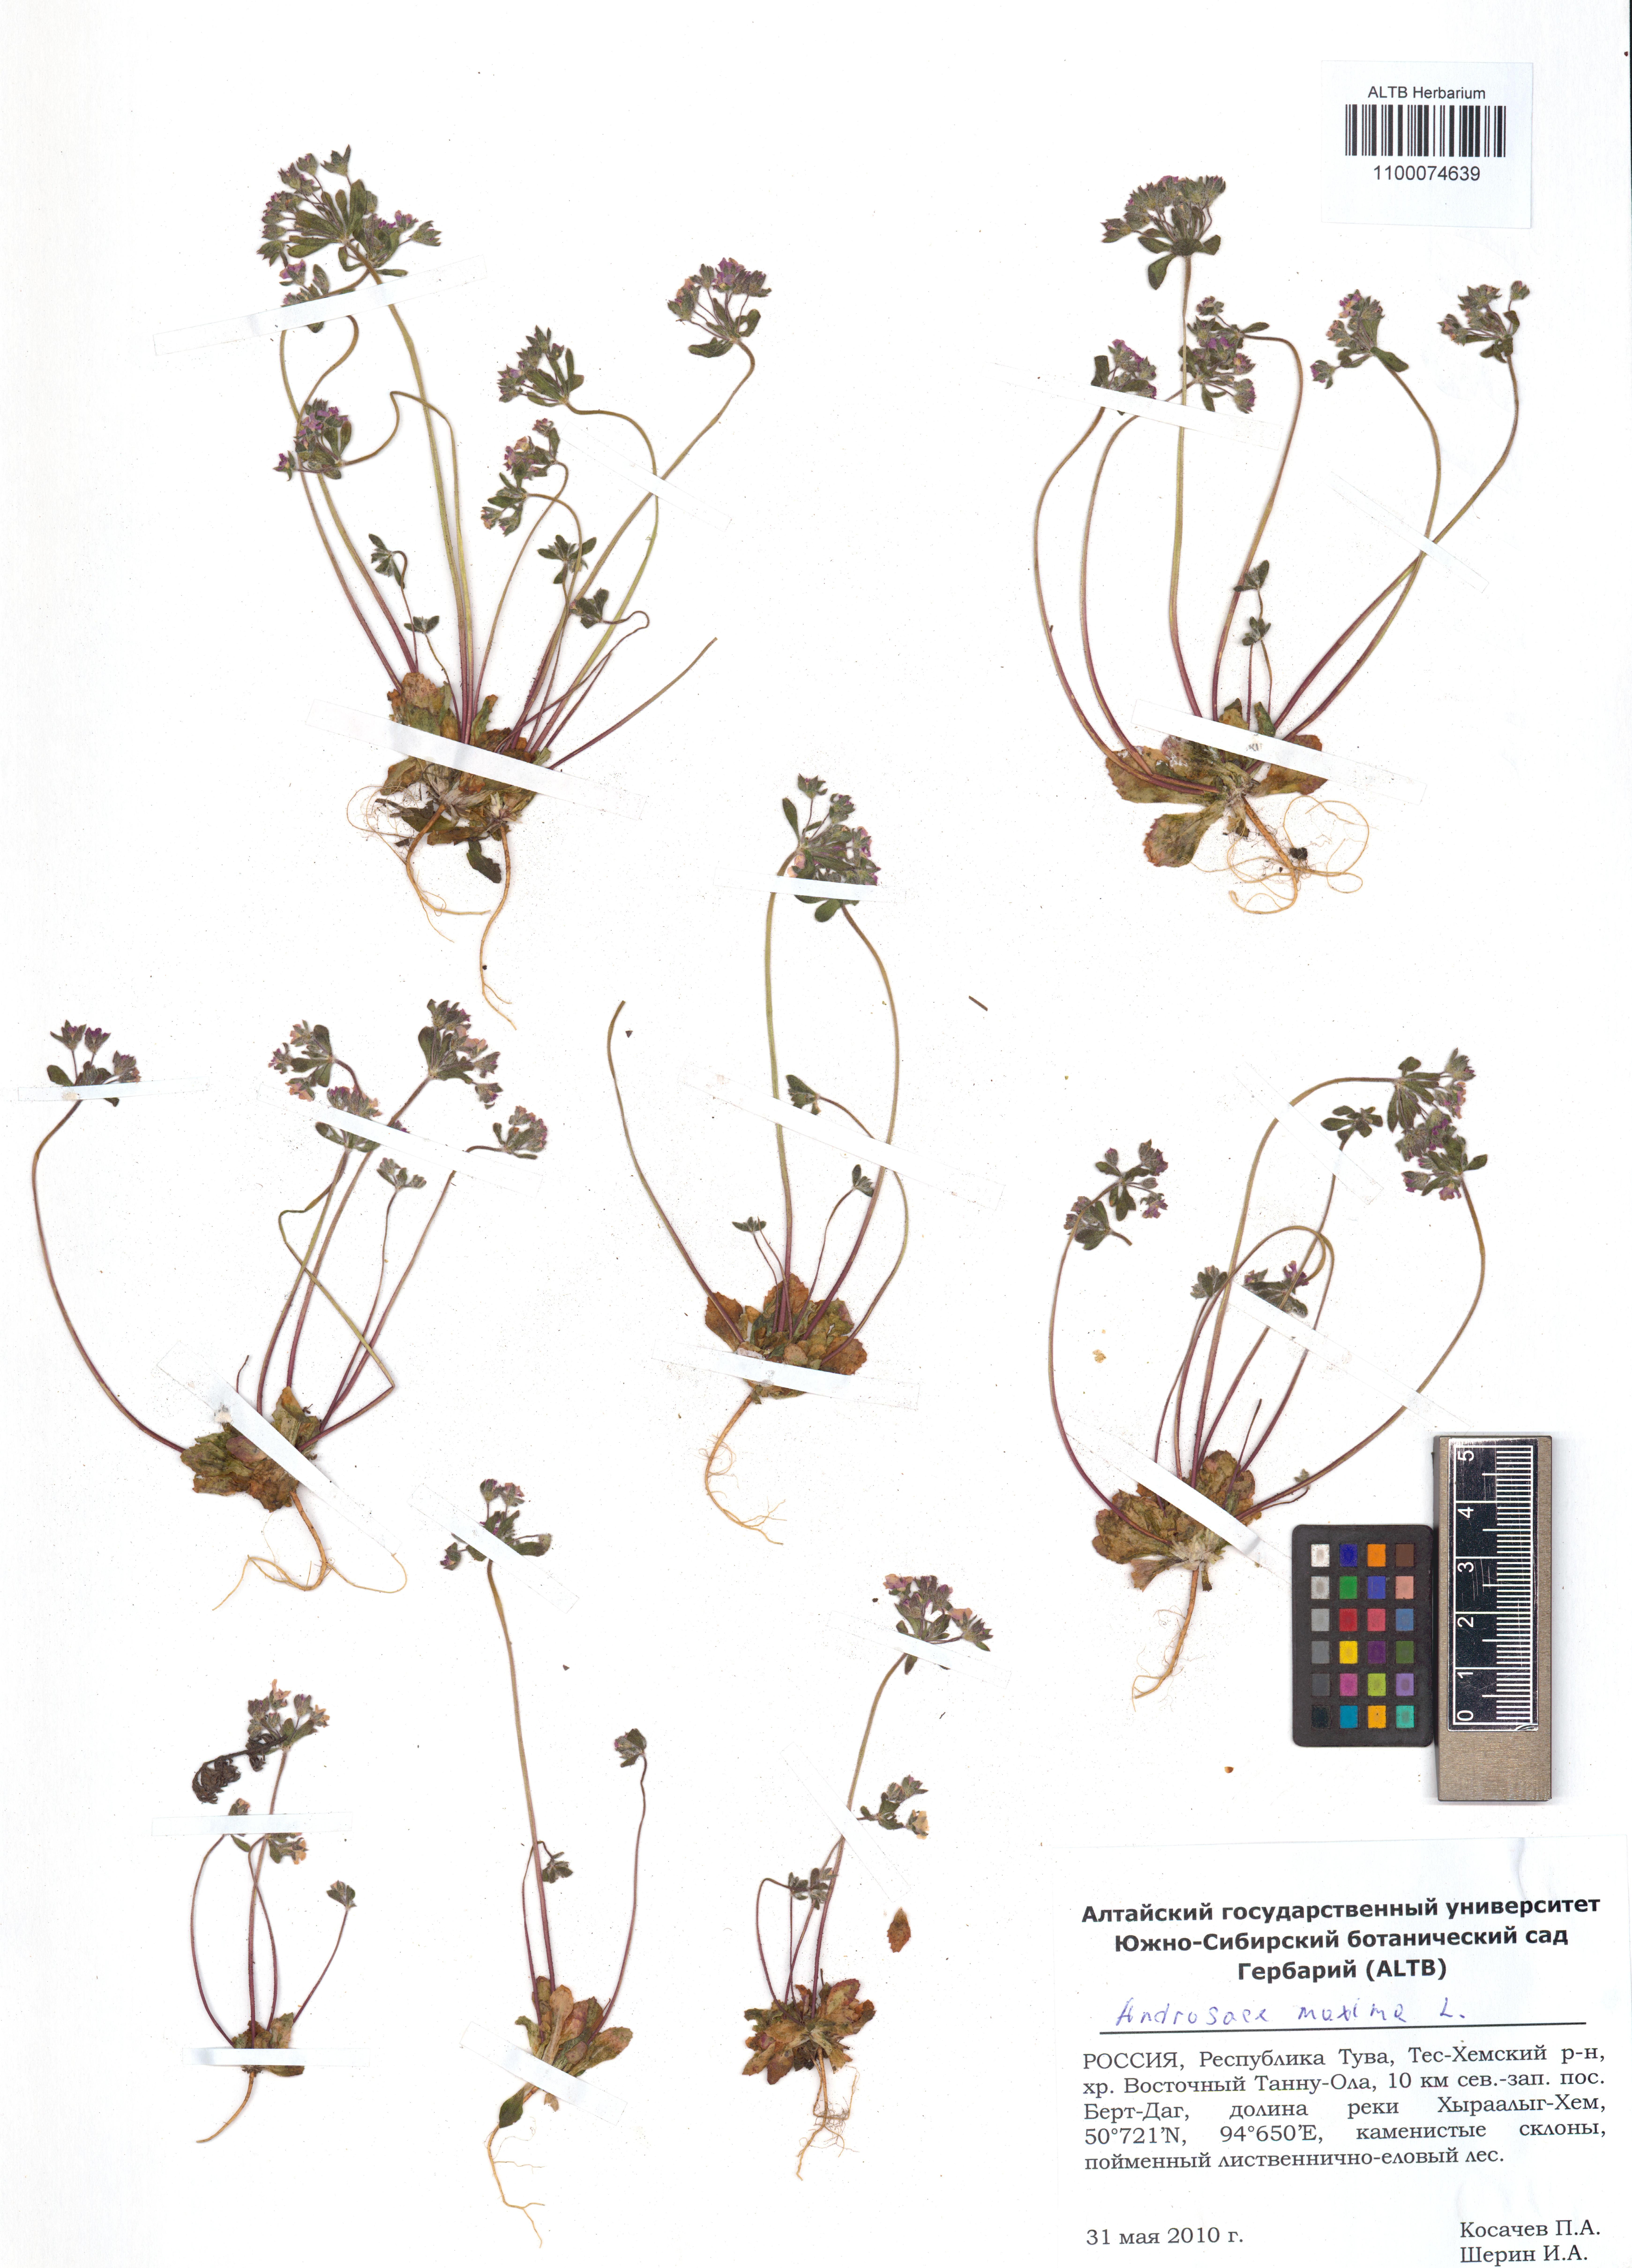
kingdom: Plantae
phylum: Tracheophyta
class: Magnoliopsida
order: Ericales
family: Primulaceae
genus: Androsace
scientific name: Androsace maxima
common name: Annual androsace
